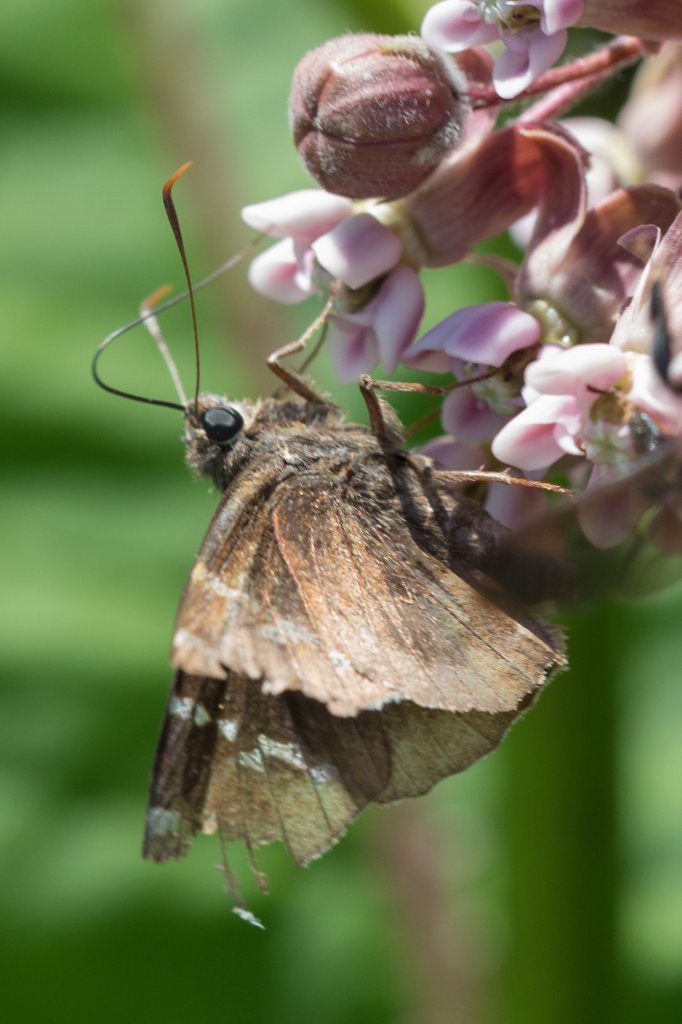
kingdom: Animalia
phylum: Arthropoda
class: Insecta
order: Lepidoptera
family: Hesperiidae
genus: Autochton
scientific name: Autochton
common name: Southern Cloudywing
